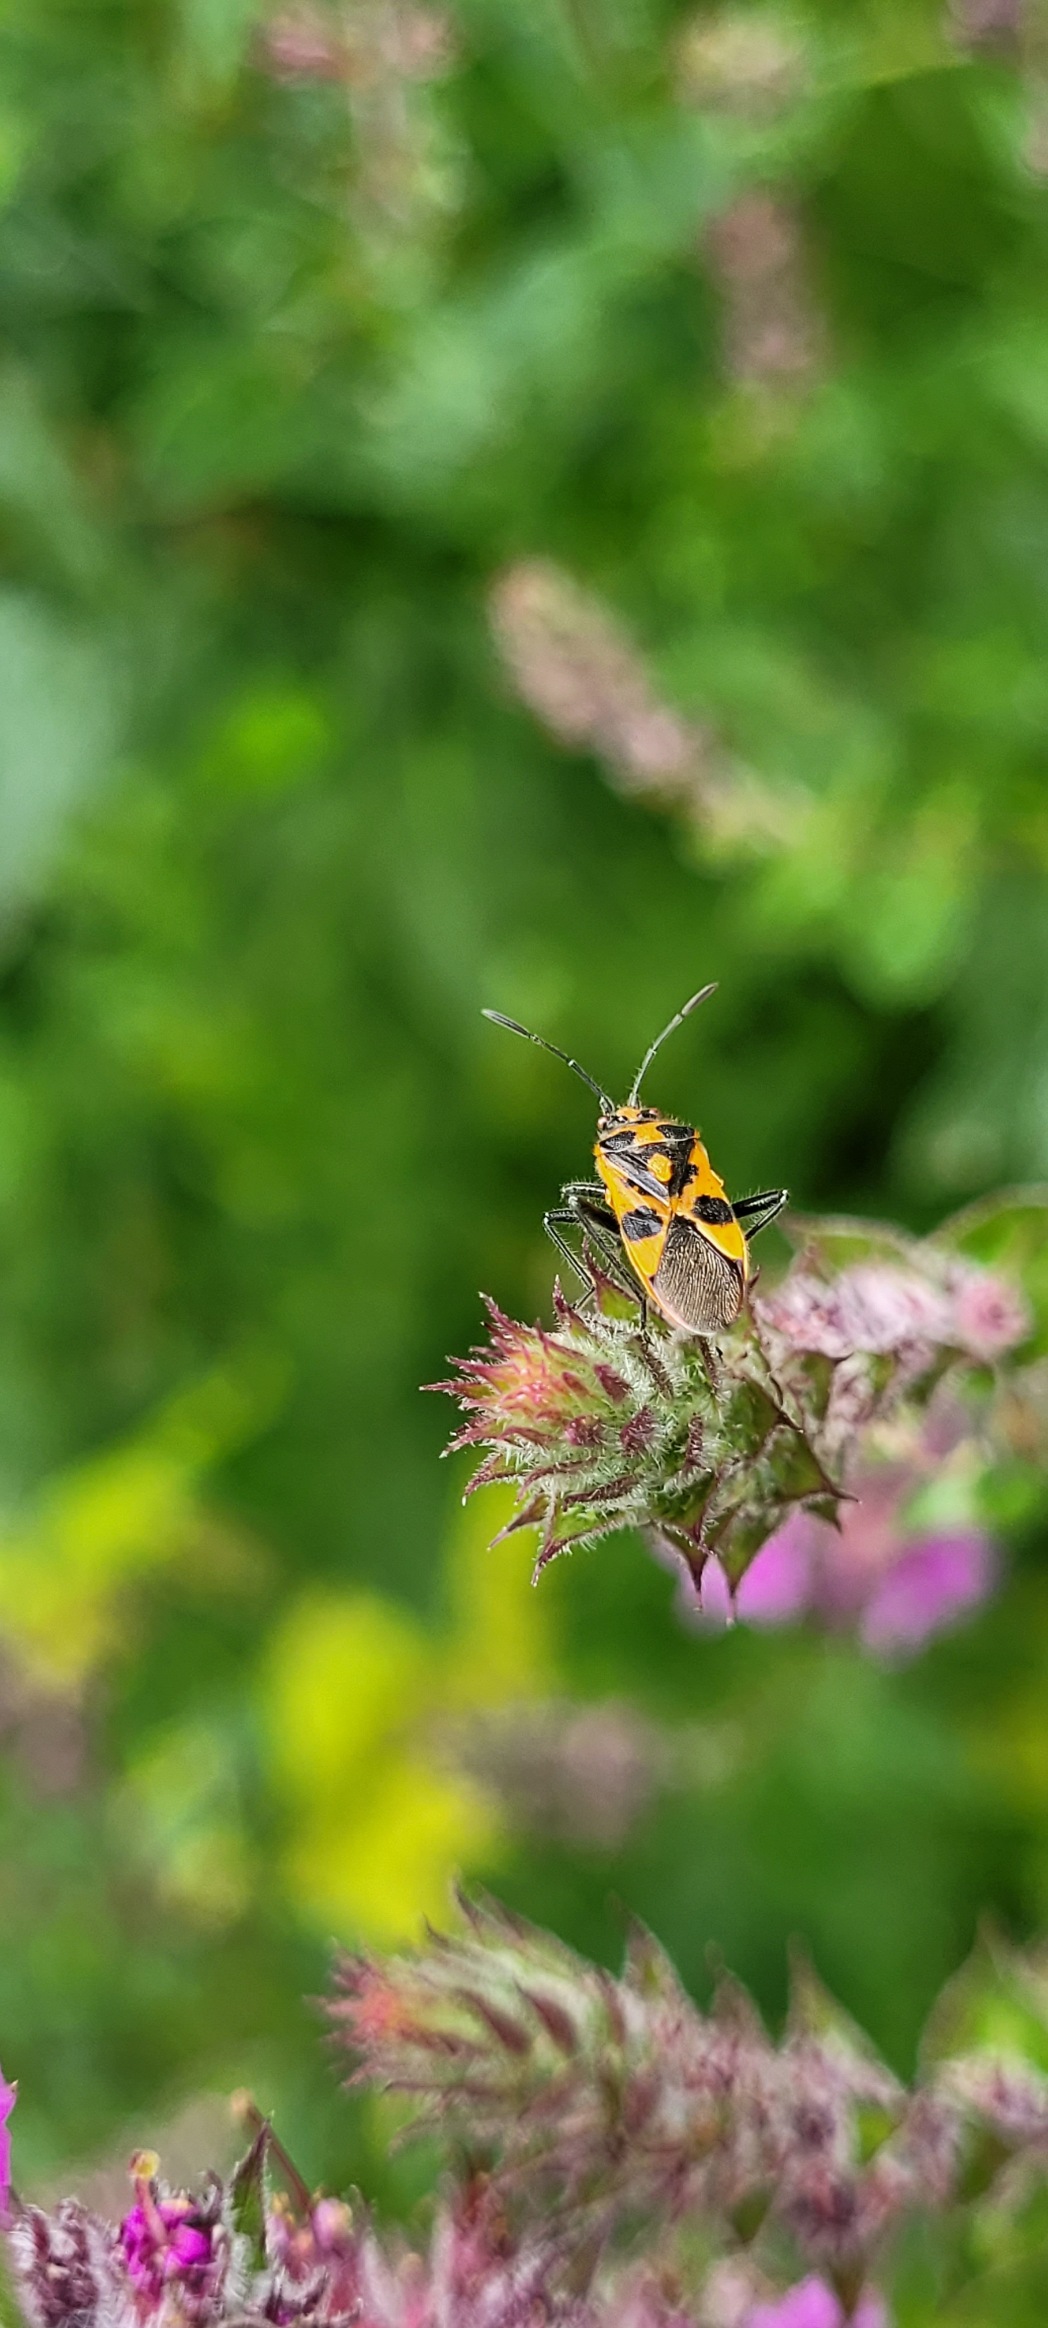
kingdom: Animalia
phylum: Arthropoda
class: Insecta
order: Hemiptera
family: Rhopalidae
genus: Corizus
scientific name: Corizus hyoscyami
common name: Rød kanttæge
